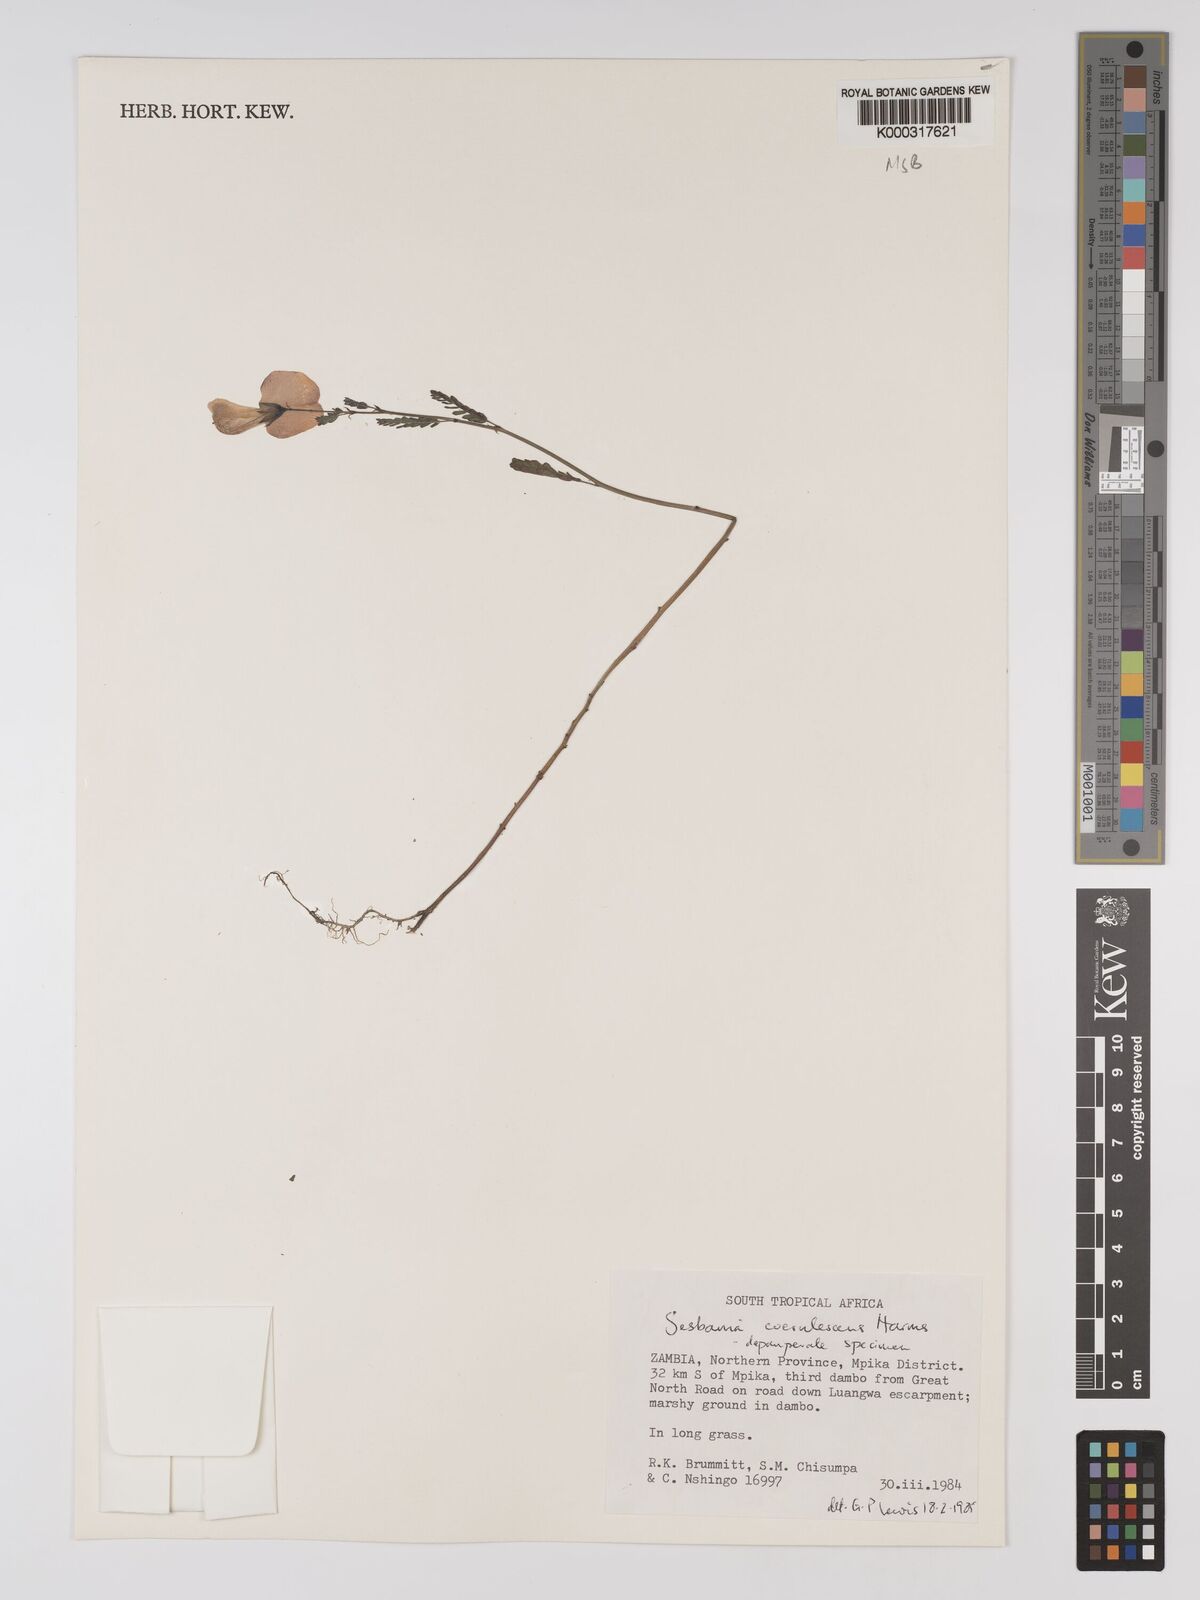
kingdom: Plantae
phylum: Tracheophyta
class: Magnoliopsida
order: Fabales
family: Fabaceae
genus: Sesbania
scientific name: Sesbania coerulescens
